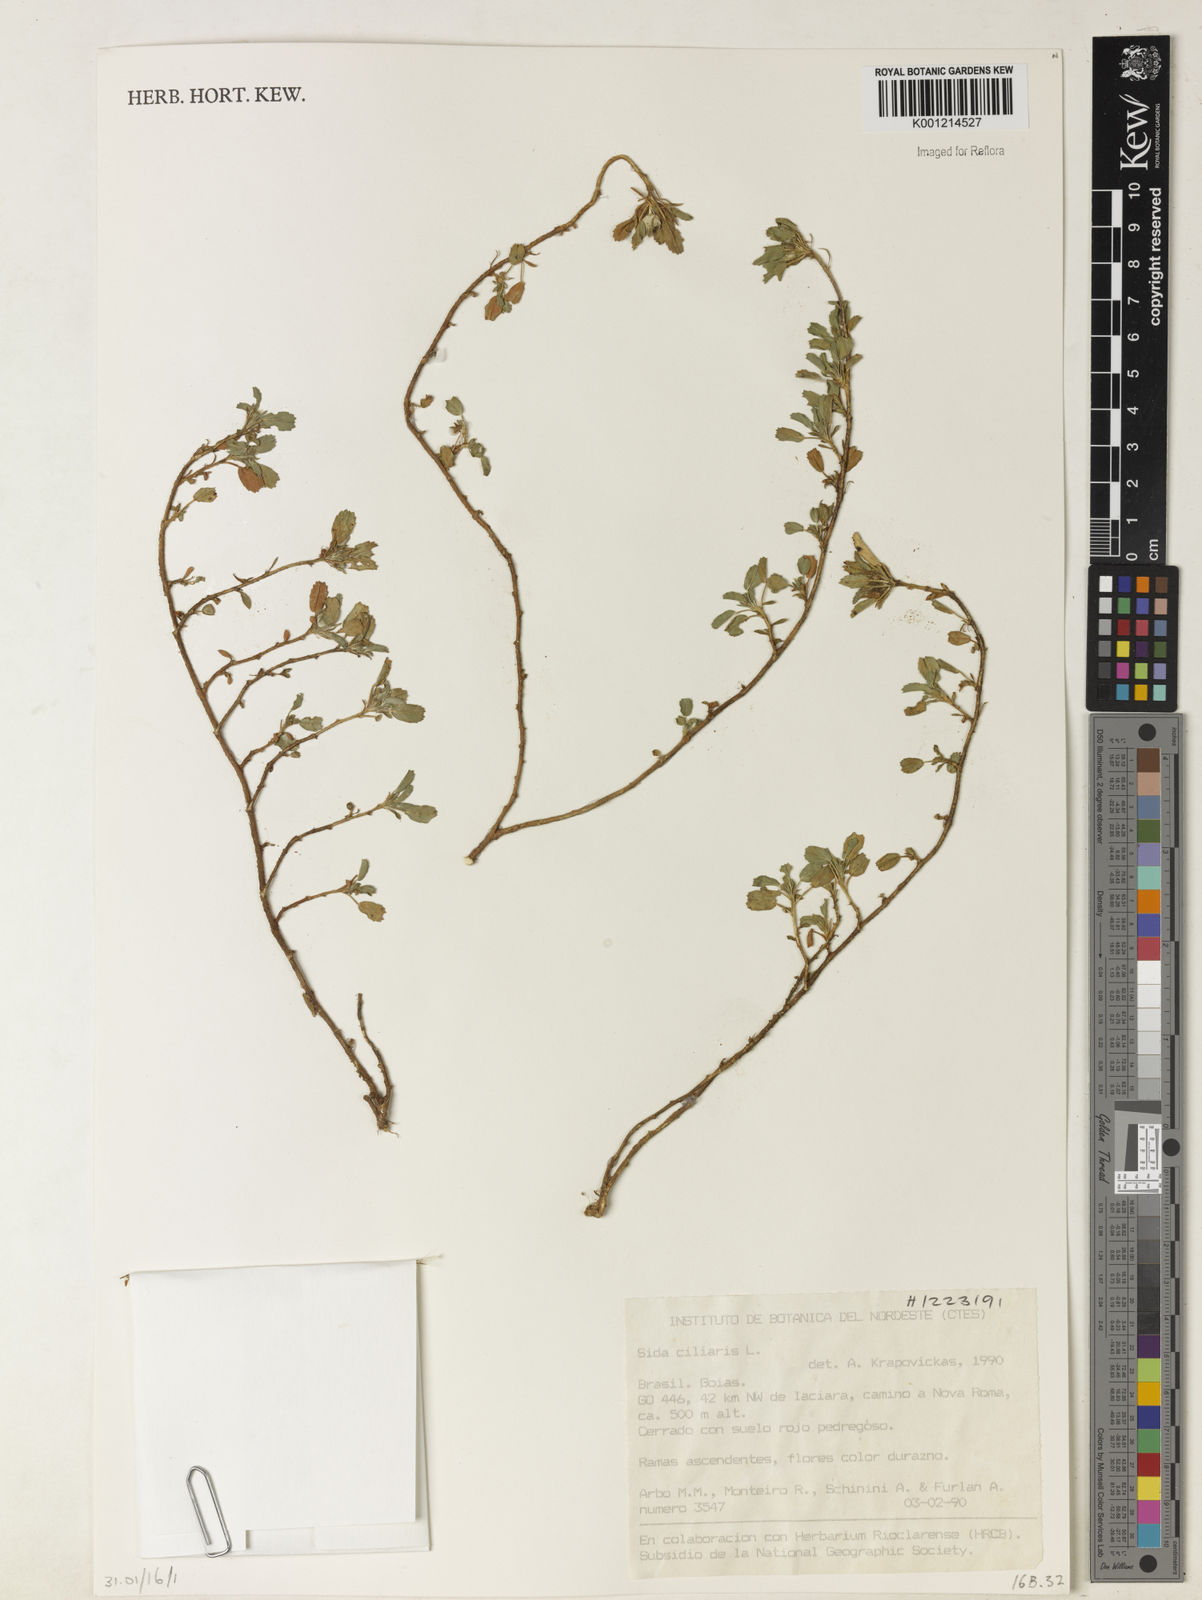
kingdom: Plantae
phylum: Tracheophyta
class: Magnoliopsida
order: Malvales
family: Malvaceae
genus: Sida
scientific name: Sida ciliaris
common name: Bracted fanpetals
